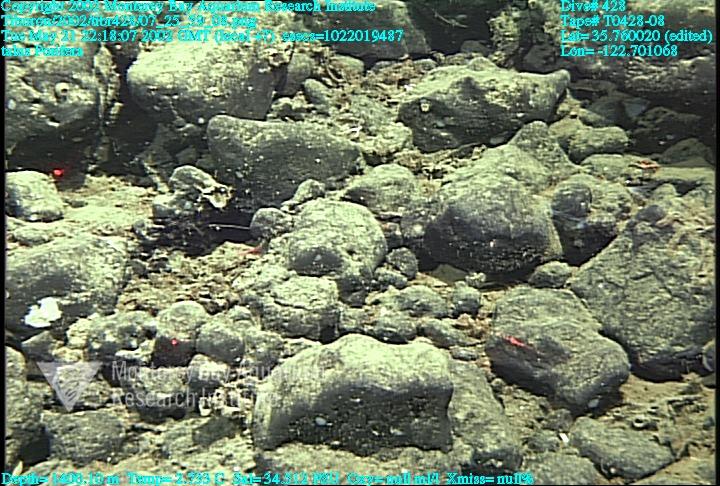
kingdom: Animalia
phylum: Porifera
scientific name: Porifera
